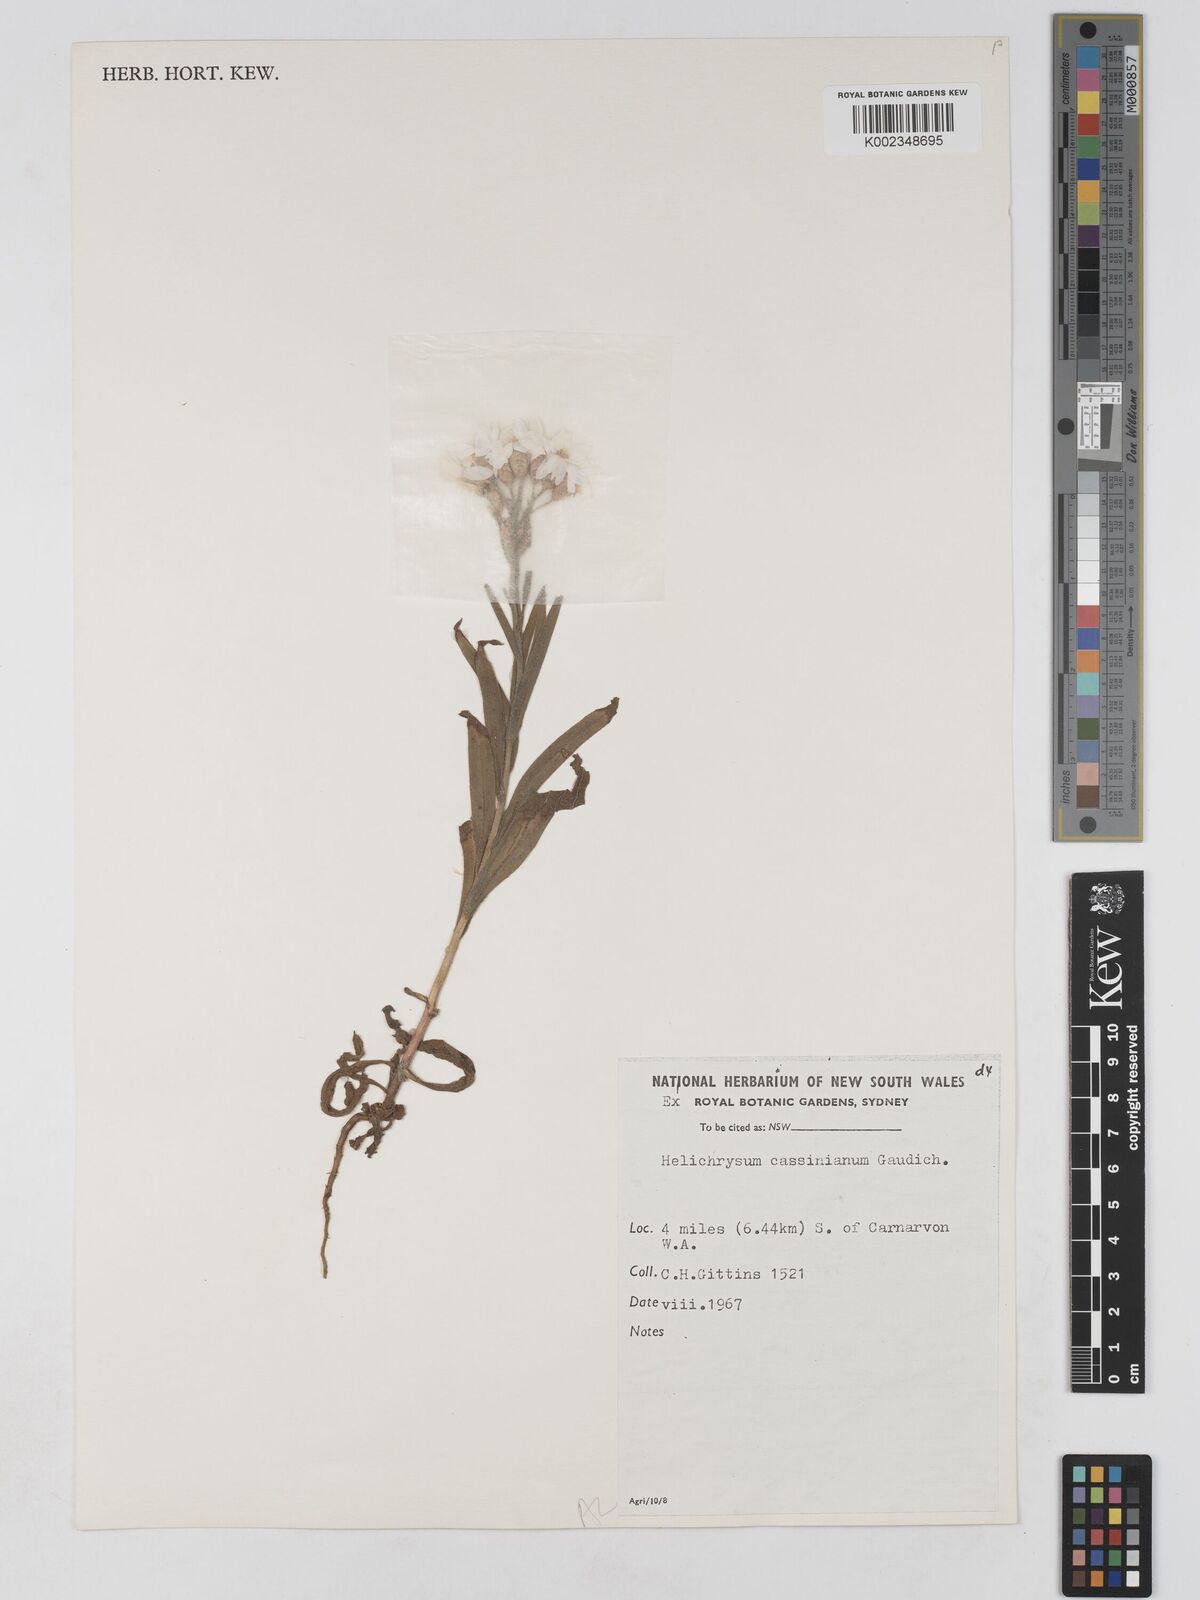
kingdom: Plantae
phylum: Tracheophyta
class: Magnoliopsida
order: Asterales
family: Asteraceae
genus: Schoenia
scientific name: Schoenia cassiniana
